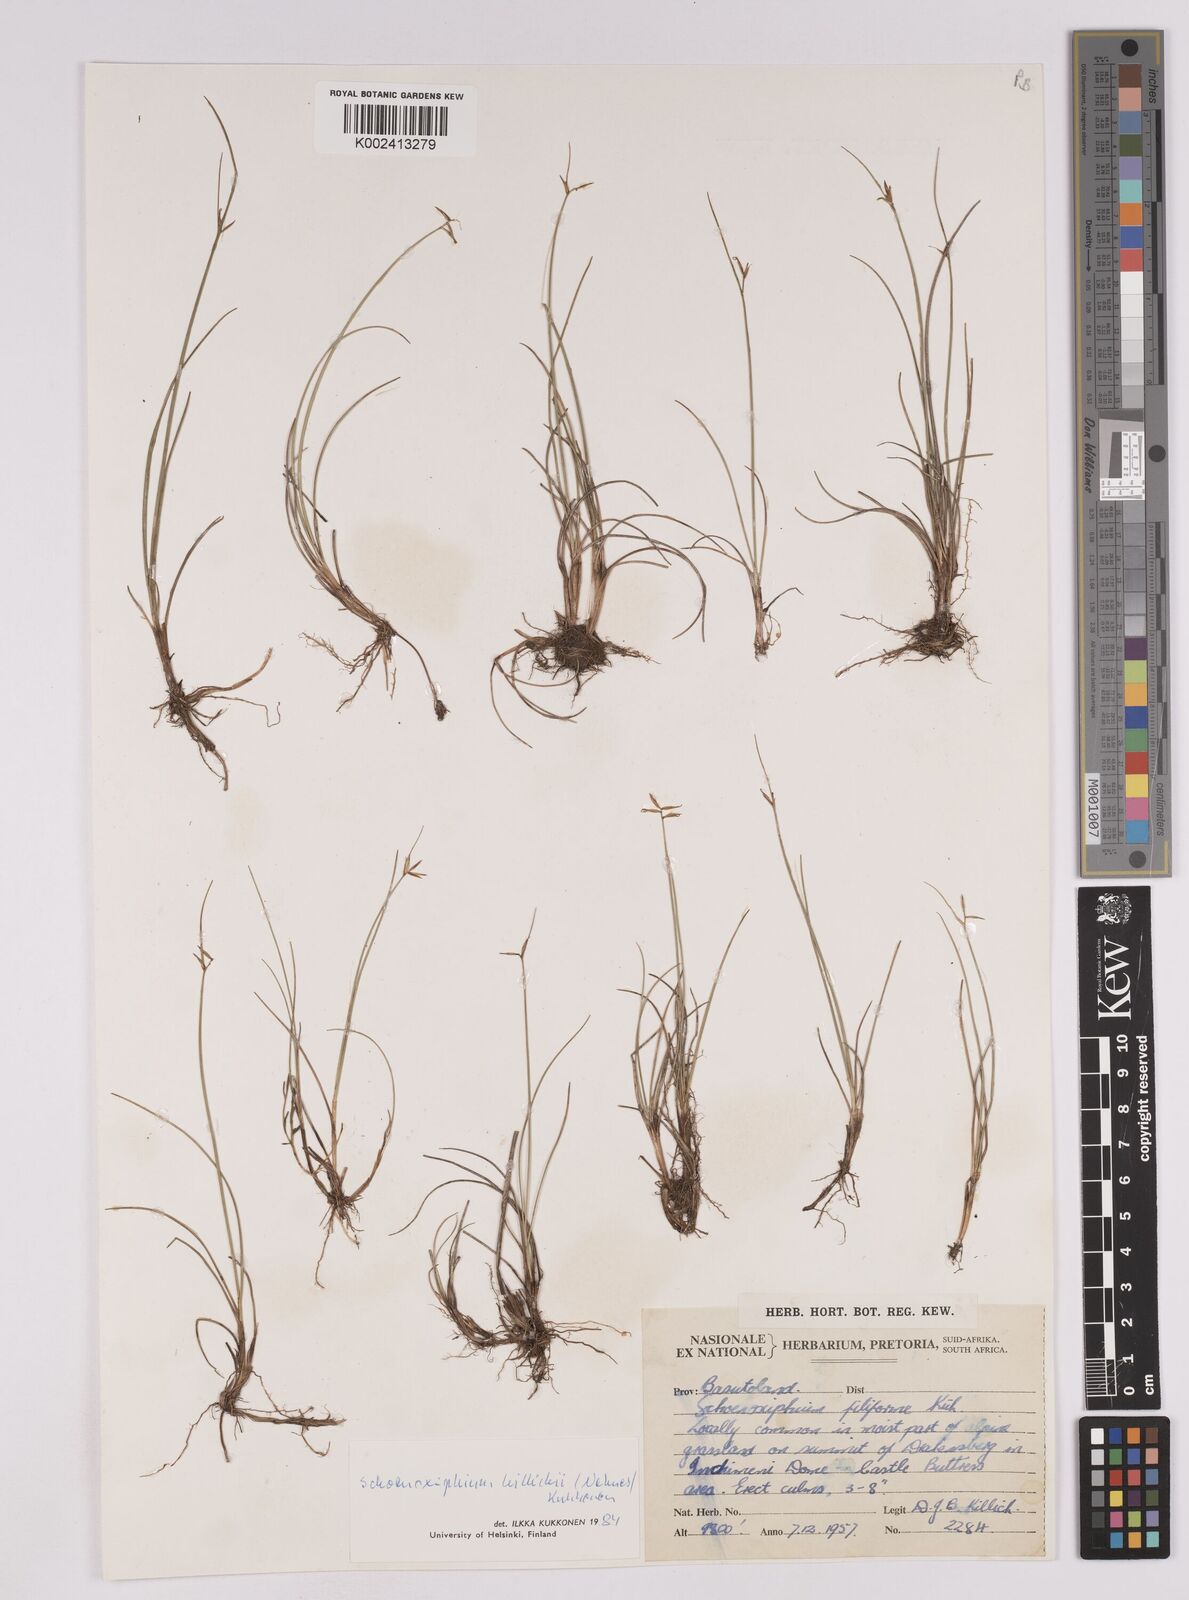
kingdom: Plantae
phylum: Tracheophyta
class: Liliopsida
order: Poales
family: Cyperaceae
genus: Carex
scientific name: Carex
